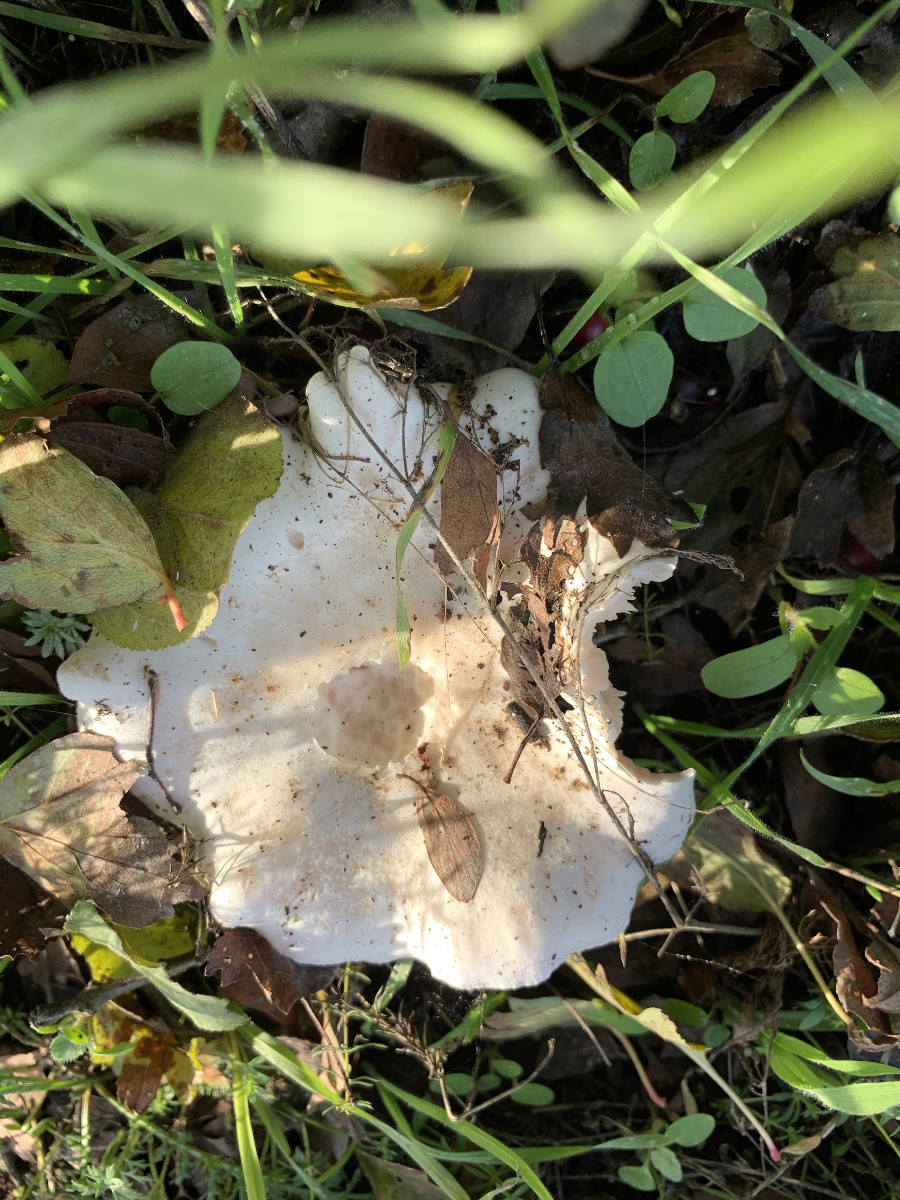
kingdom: Fungi
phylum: Basidiomycota
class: Agaricomycetes
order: Agaricales
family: Tricholomataceae
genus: Pseudoclitopilus
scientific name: Pseudoclitopilus rhodoleucus
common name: rosabladet tragtridderhat
